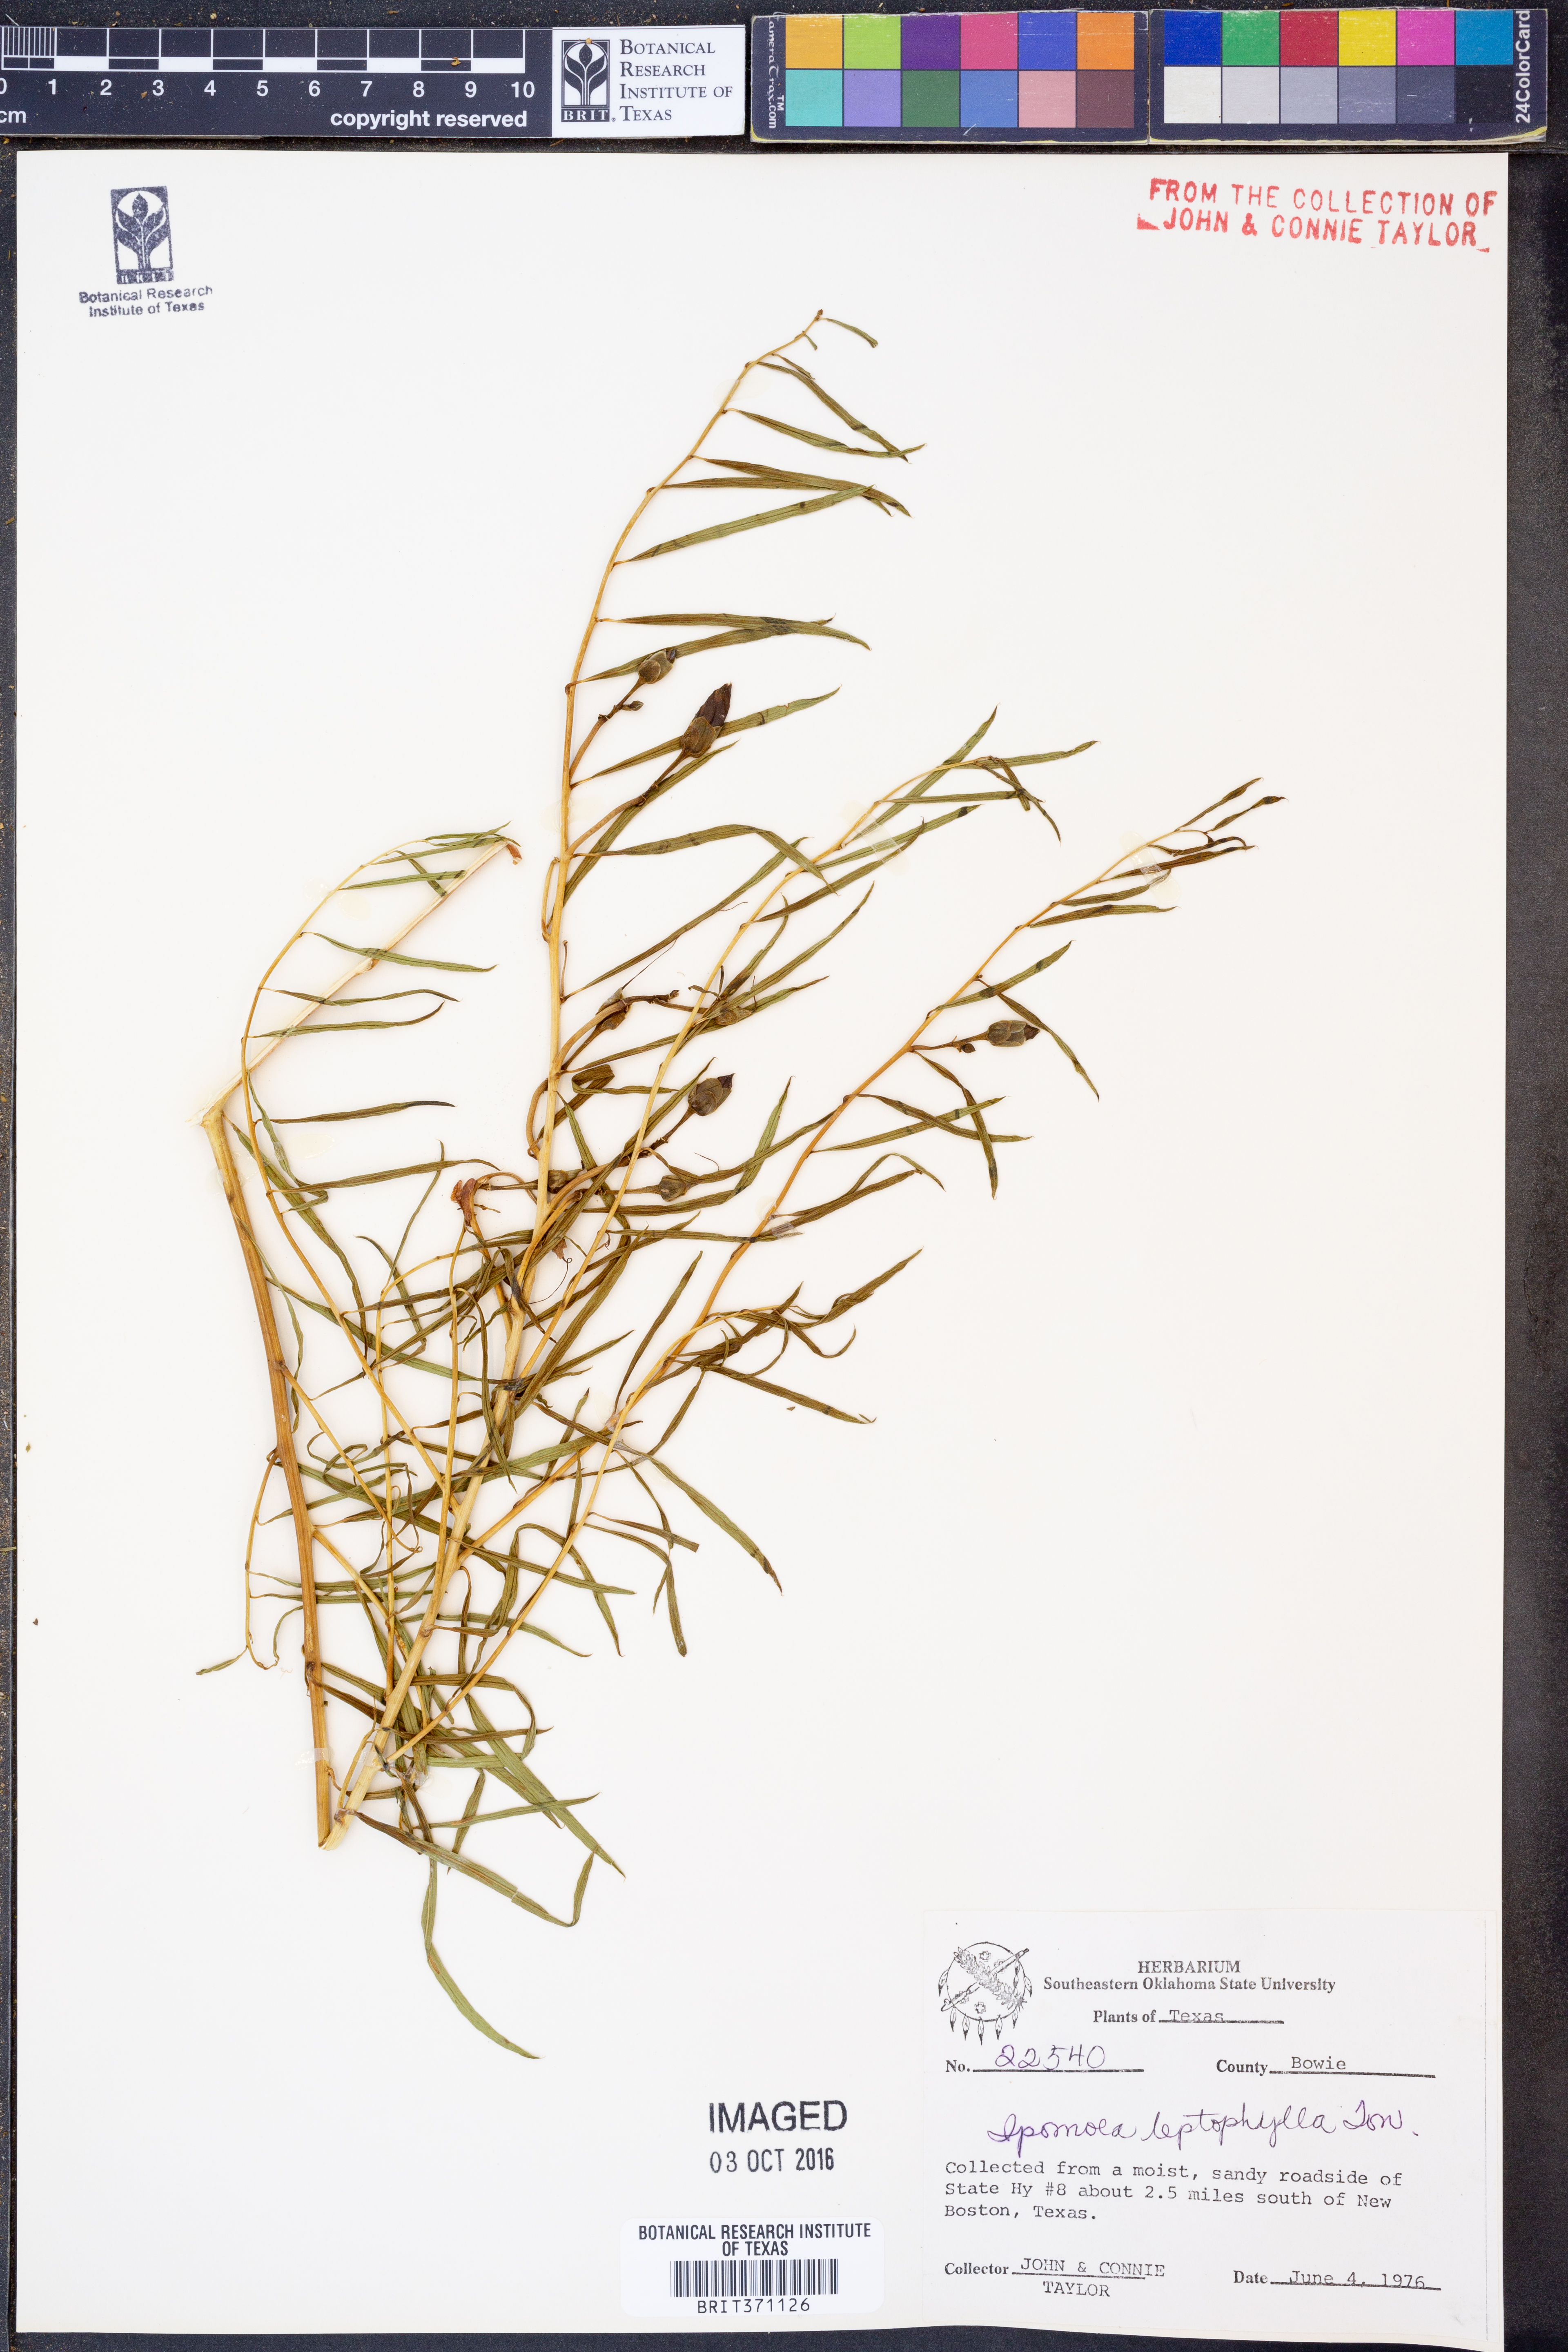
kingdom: Plantae
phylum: Tracheophyta
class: Magnoliopsida
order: Solanales
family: Convolvulaceae
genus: Ipomoea
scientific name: Ipomoea leptophylla
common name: Bush moonflower
